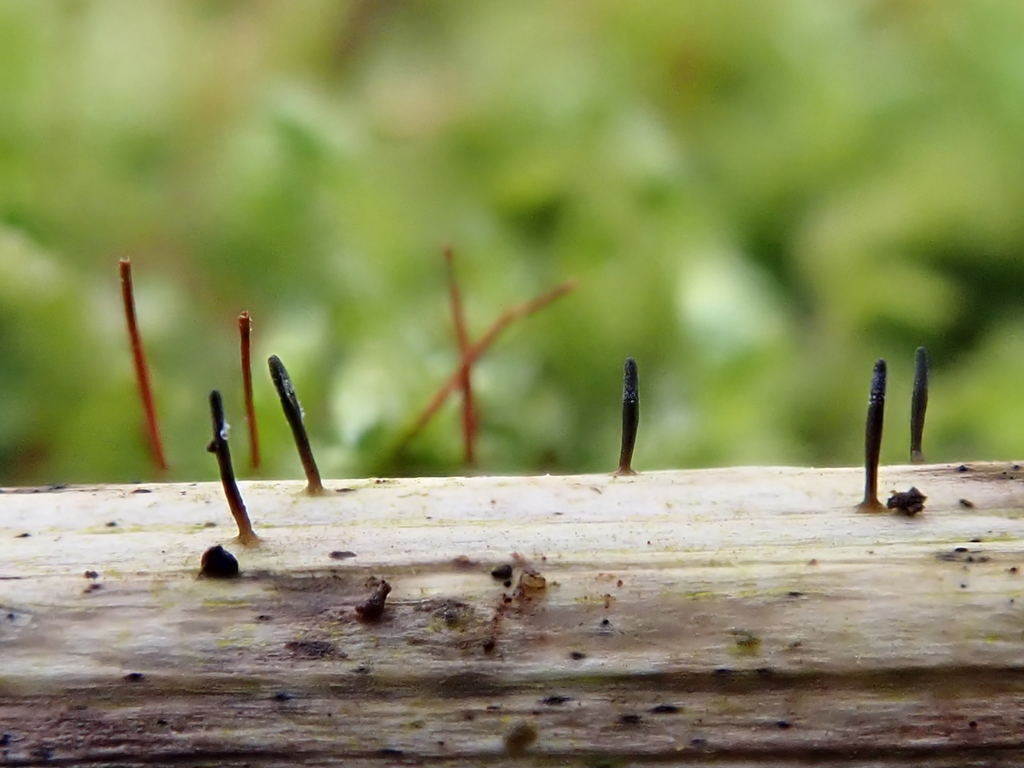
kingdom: Fungi
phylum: Ascomycota
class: Dothideomycetes
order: Acrospermales
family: Acrospermaceae
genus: Acrospermum
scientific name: Acrospermum compressum
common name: nælde-stængeltunge
